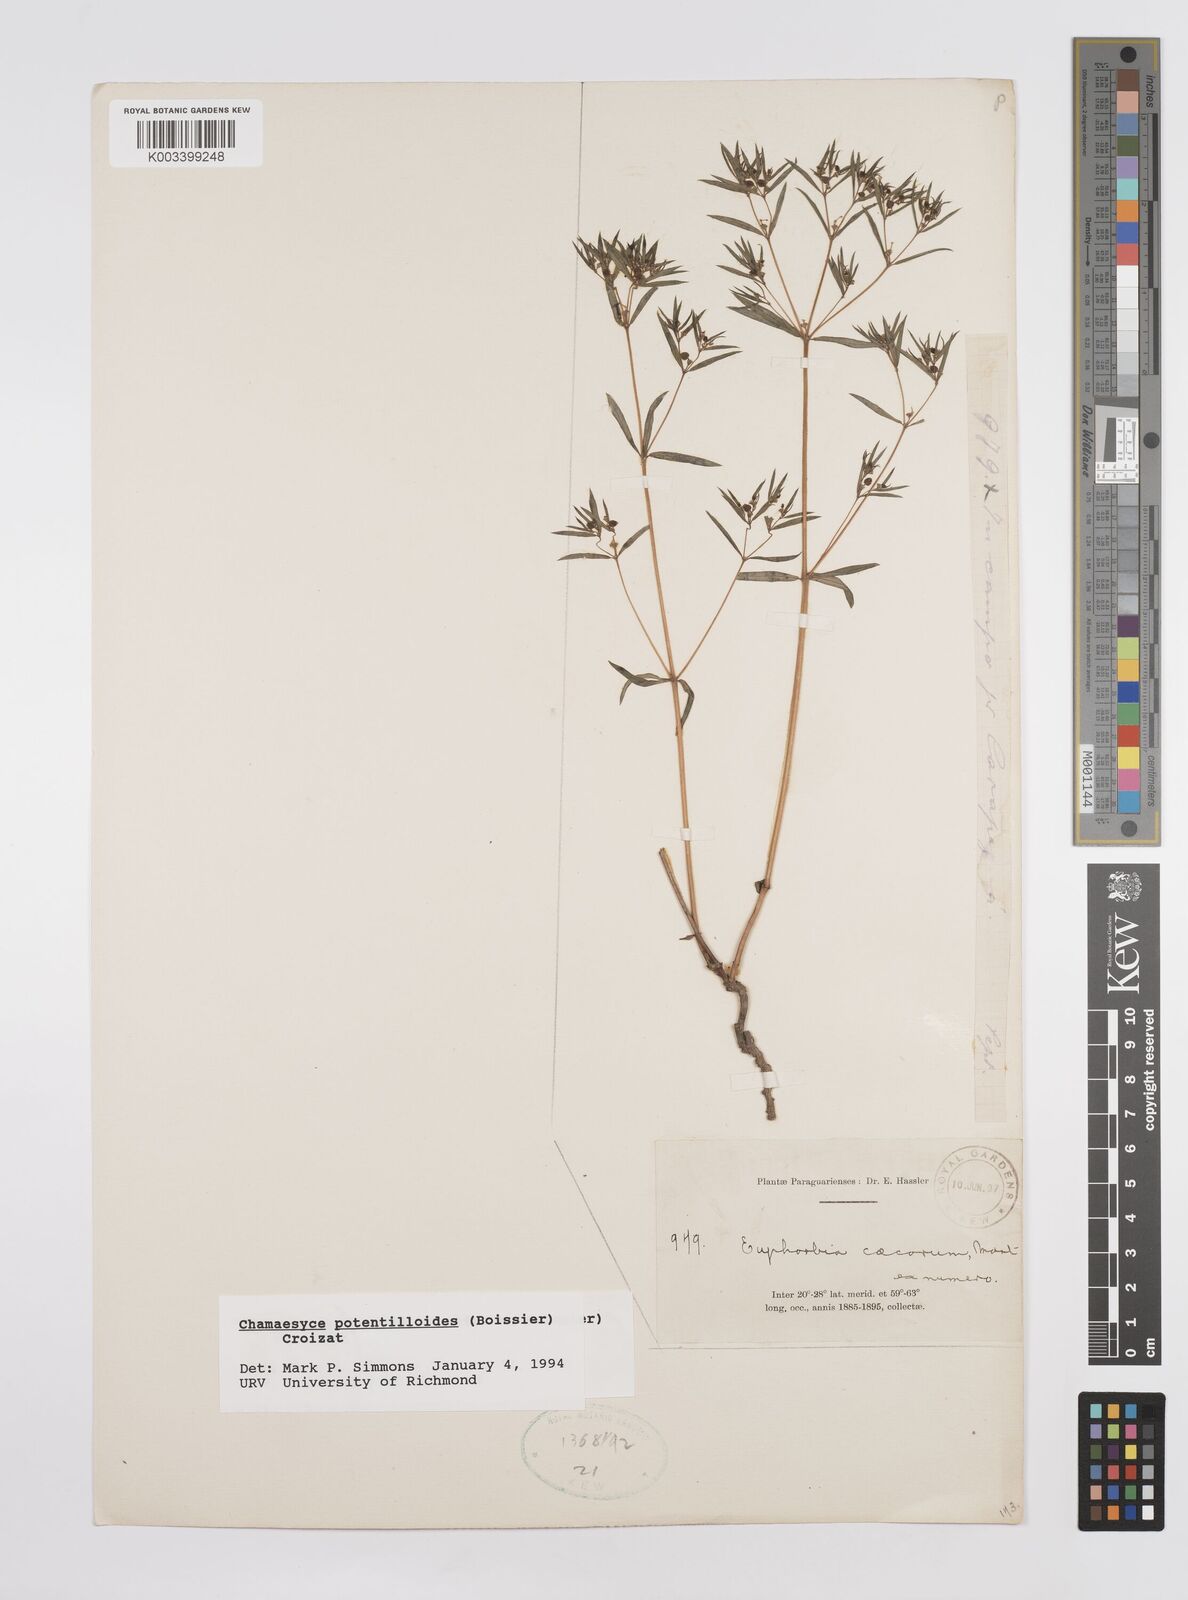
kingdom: Plantae
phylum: Tracheophyta
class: Magnoliopsida
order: Malpighiales
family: Euphorbiaceae
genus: Euphorbia
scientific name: Euphorbia potentilloides
